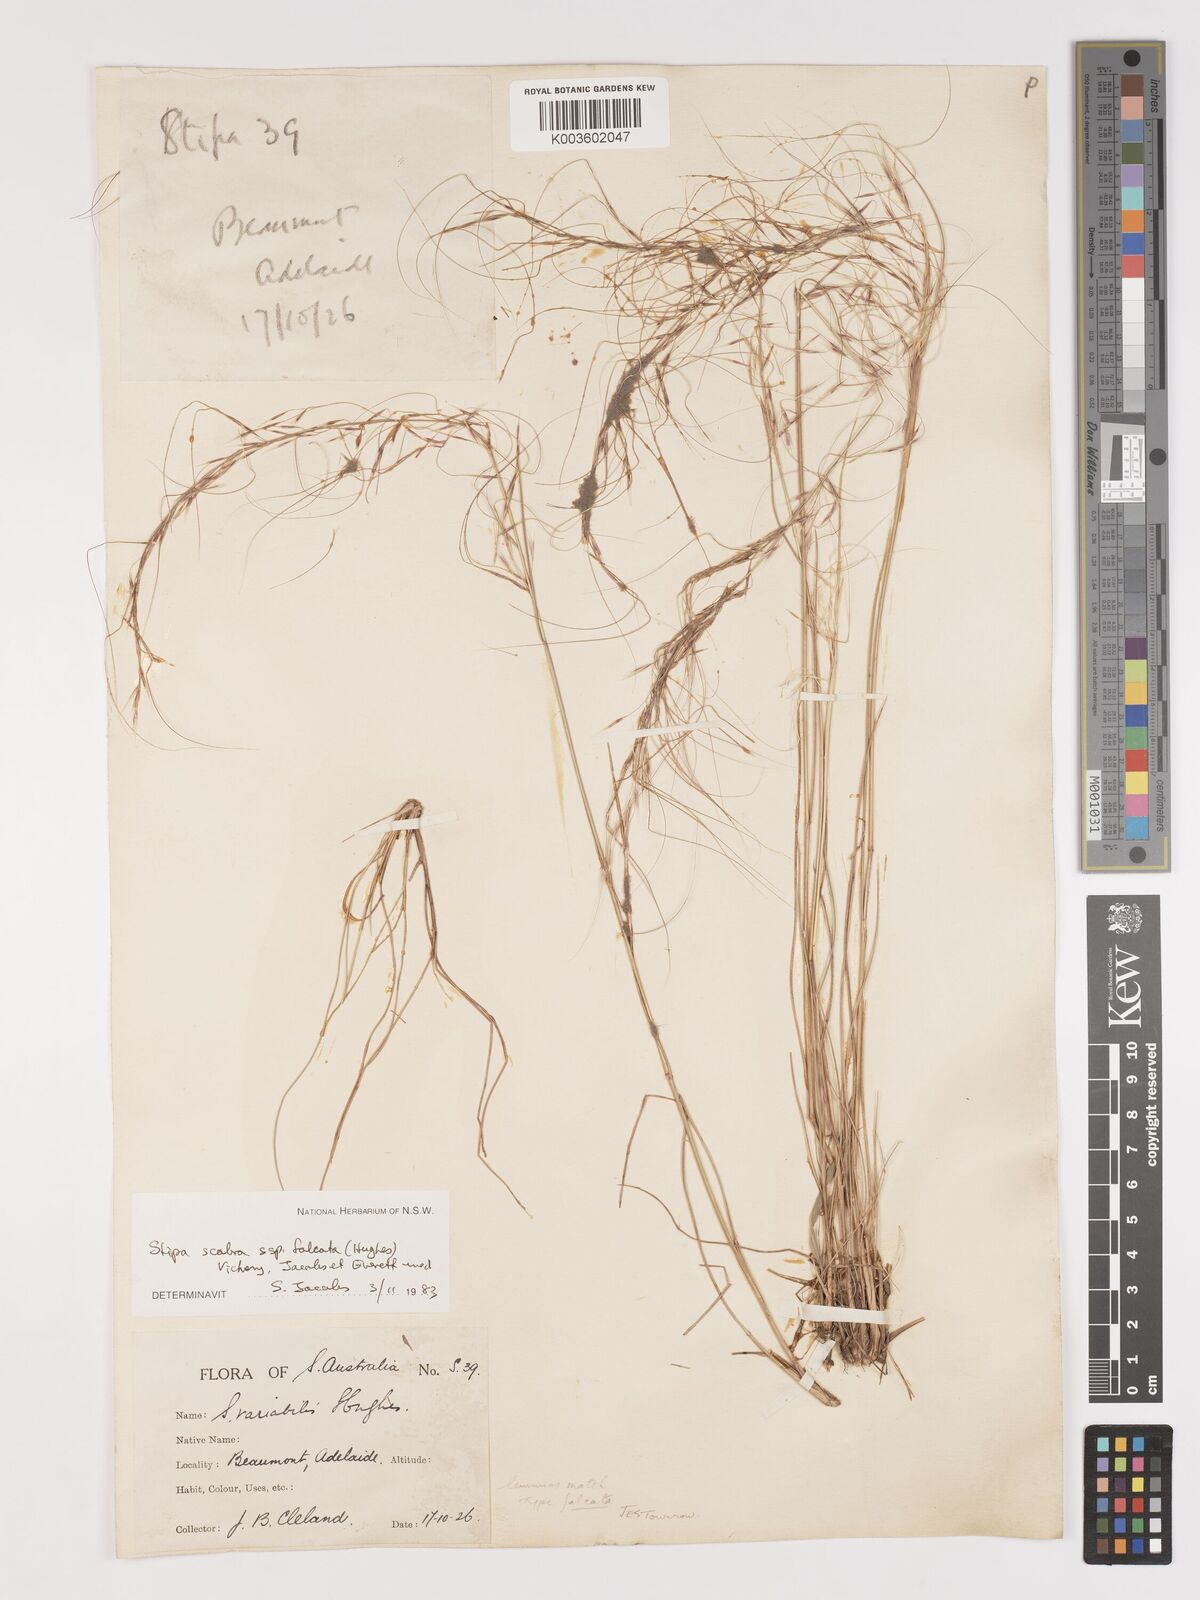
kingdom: Plantae
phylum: Tracheophyta
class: Liliopsida
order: Poales
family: Poaceae
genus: Austrostipa
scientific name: Austrostipa scabra
